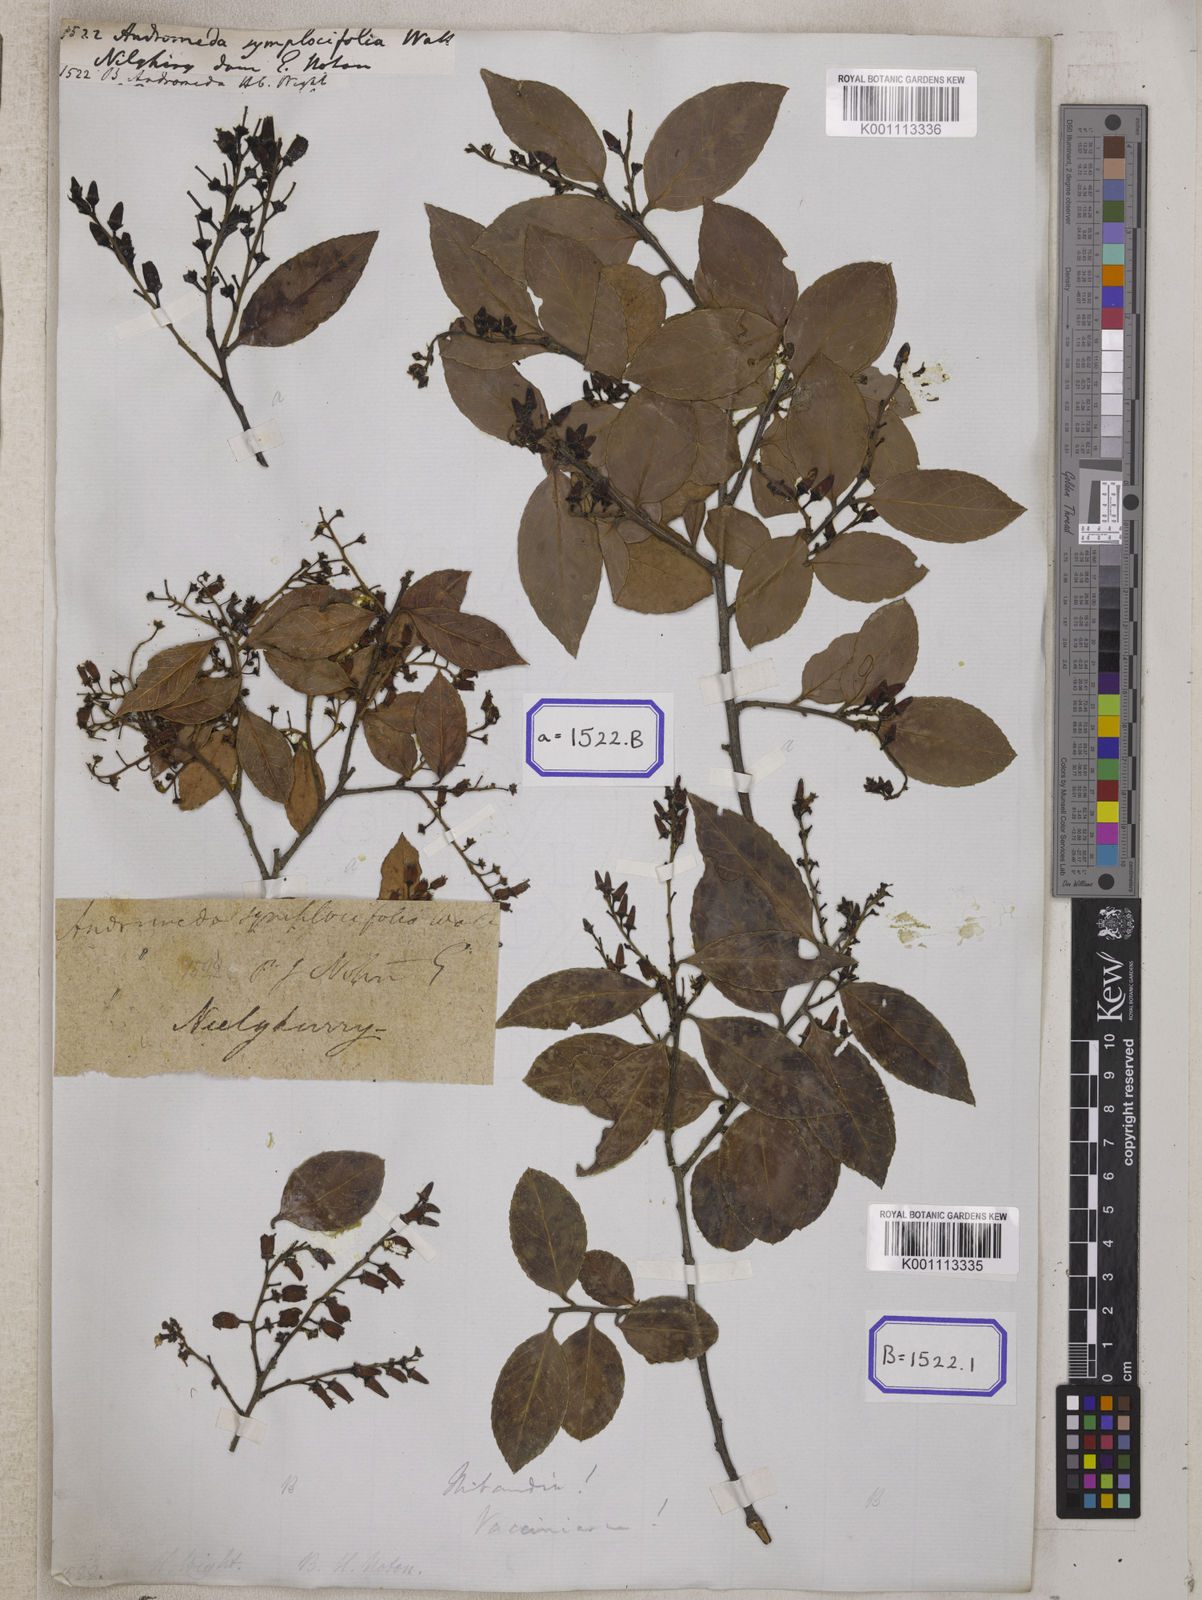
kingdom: Plantae
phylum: Tracheophyta
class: Magnoliopsida
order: Ericales
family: Ericaceae
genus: Vaccinium
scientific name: Vaccinium symplocifolium
